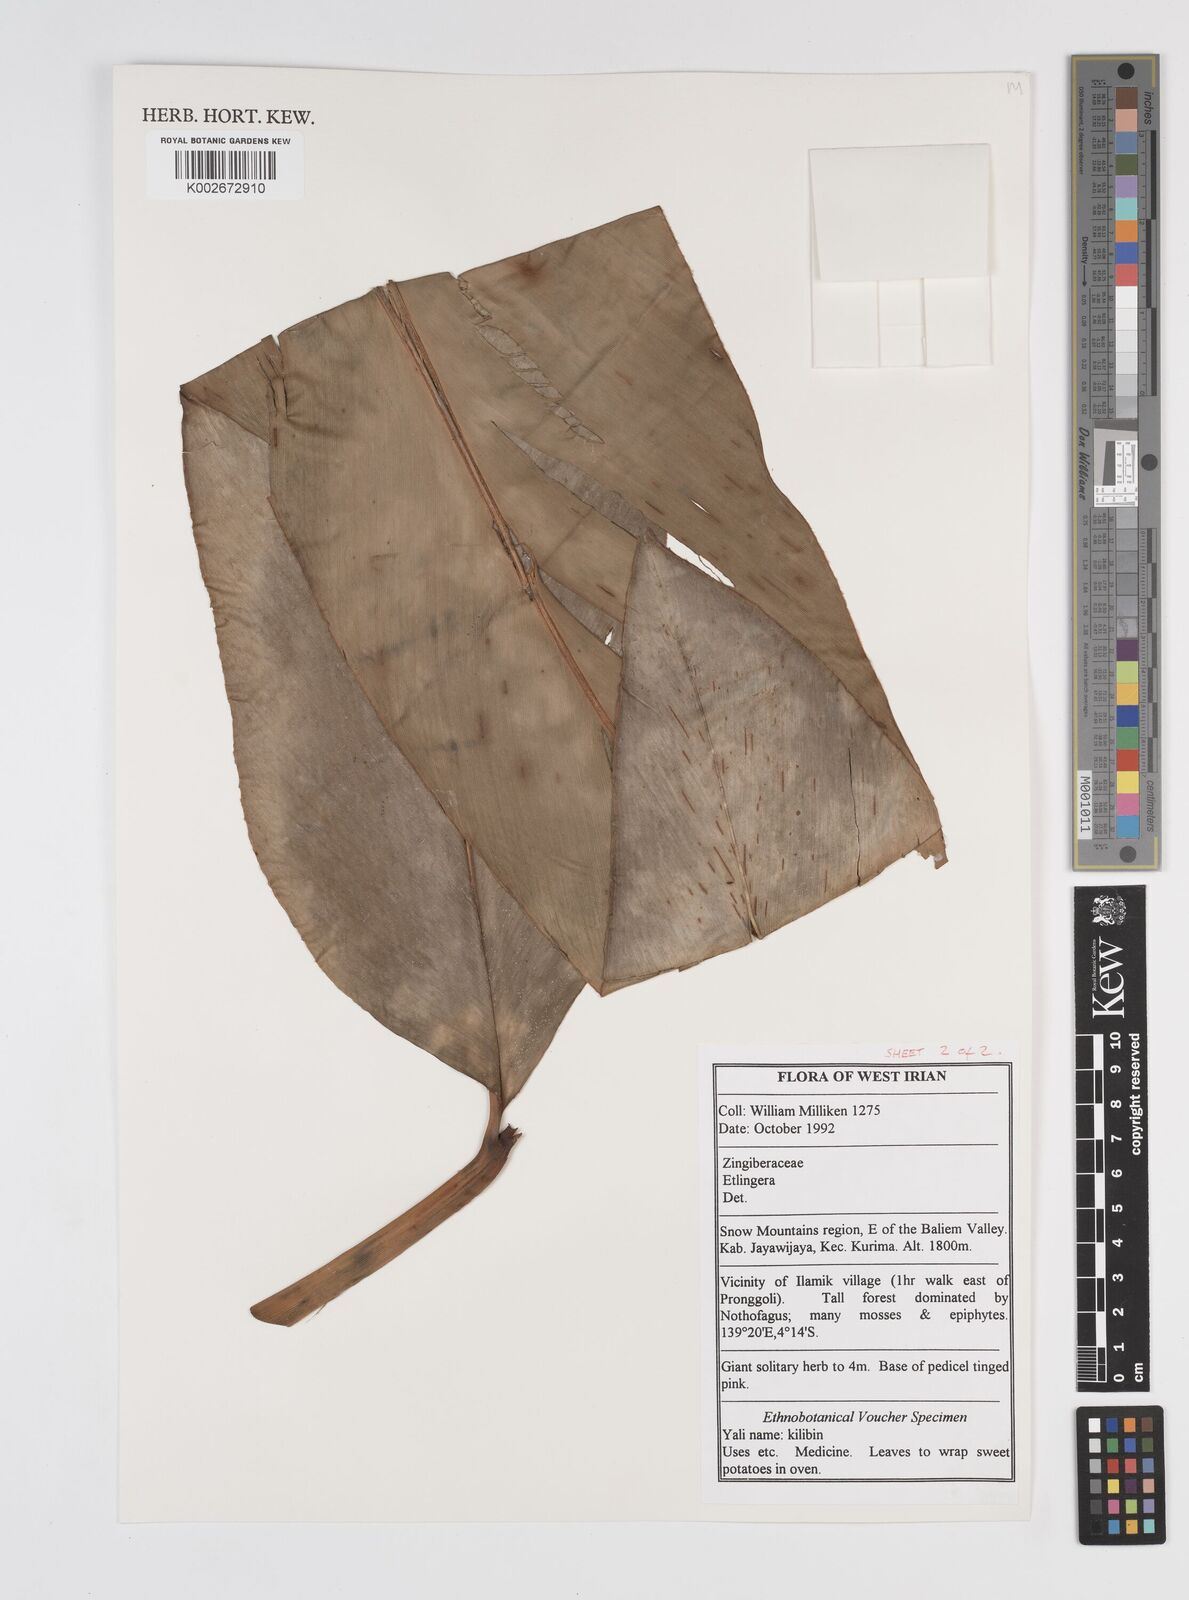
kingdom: Plantae
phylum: Tracheophyta
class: Liliopsida
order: Zingiberales
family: Zingiberaceae
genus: Etlingera
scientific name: Etlingera
